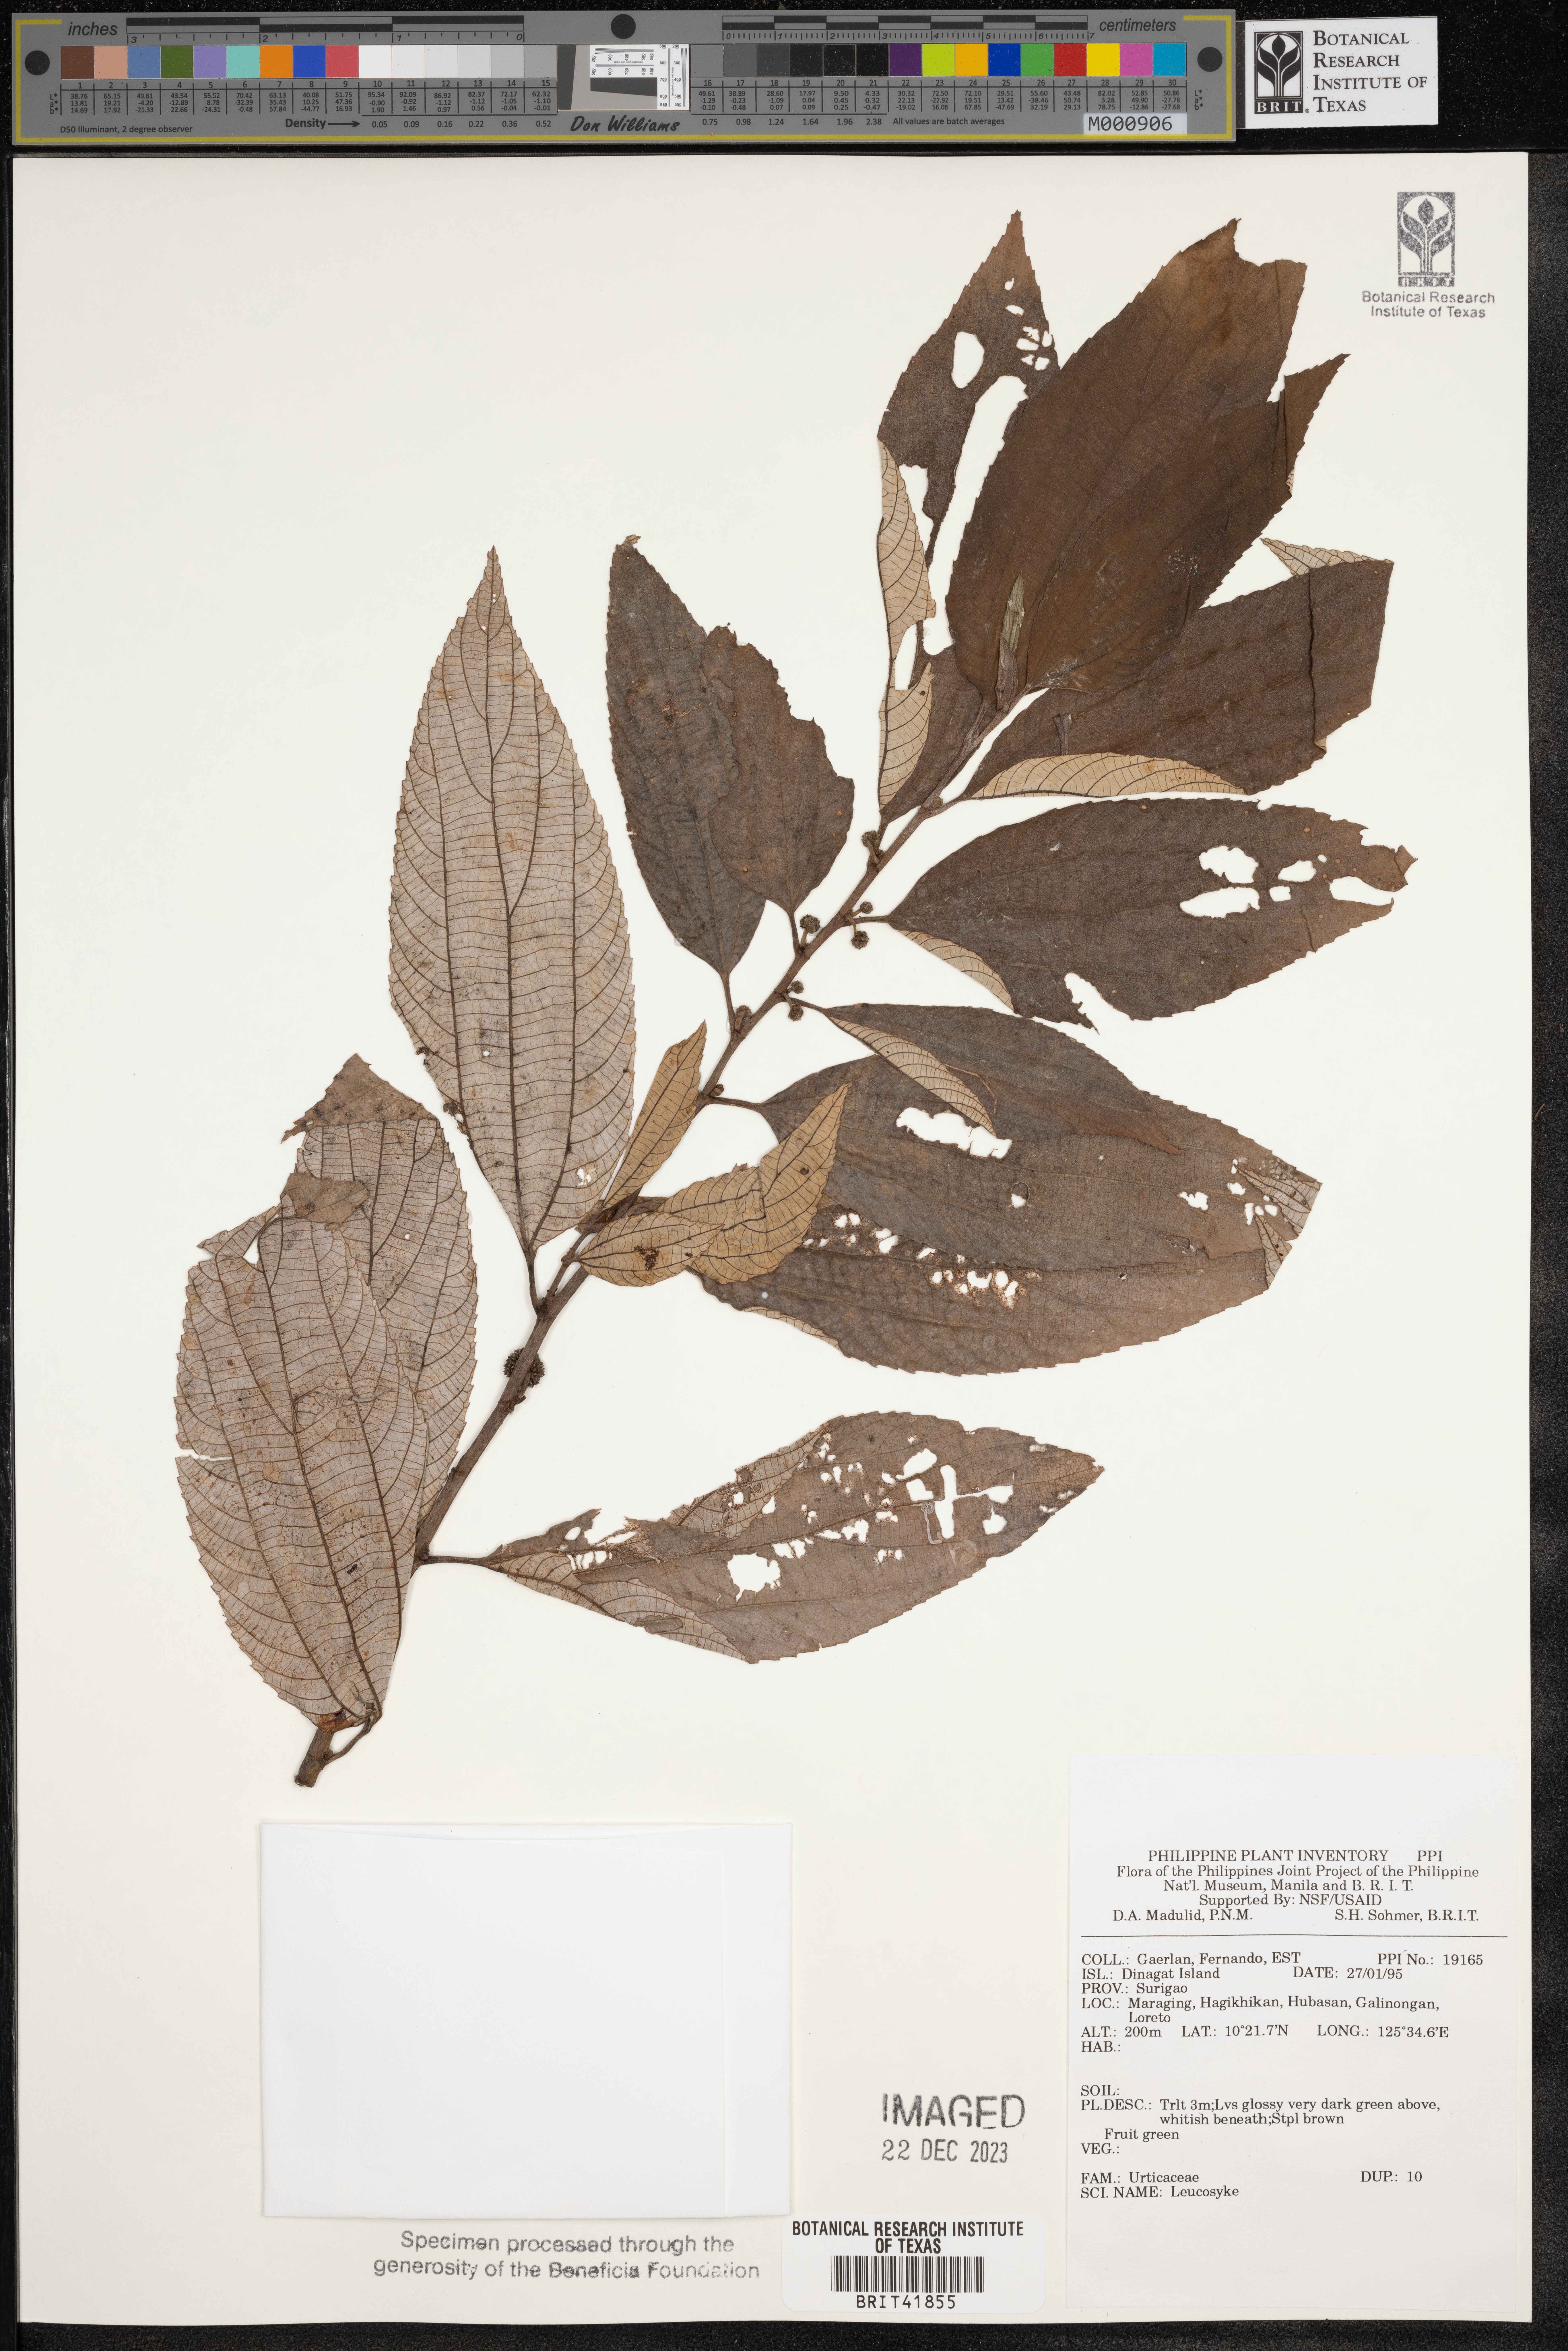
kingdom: Plantae
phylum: Tracheophyta
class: Magnoliopsida
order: Rosales
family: Urticaceae
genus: Leucosyke
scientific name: Leucosyke
